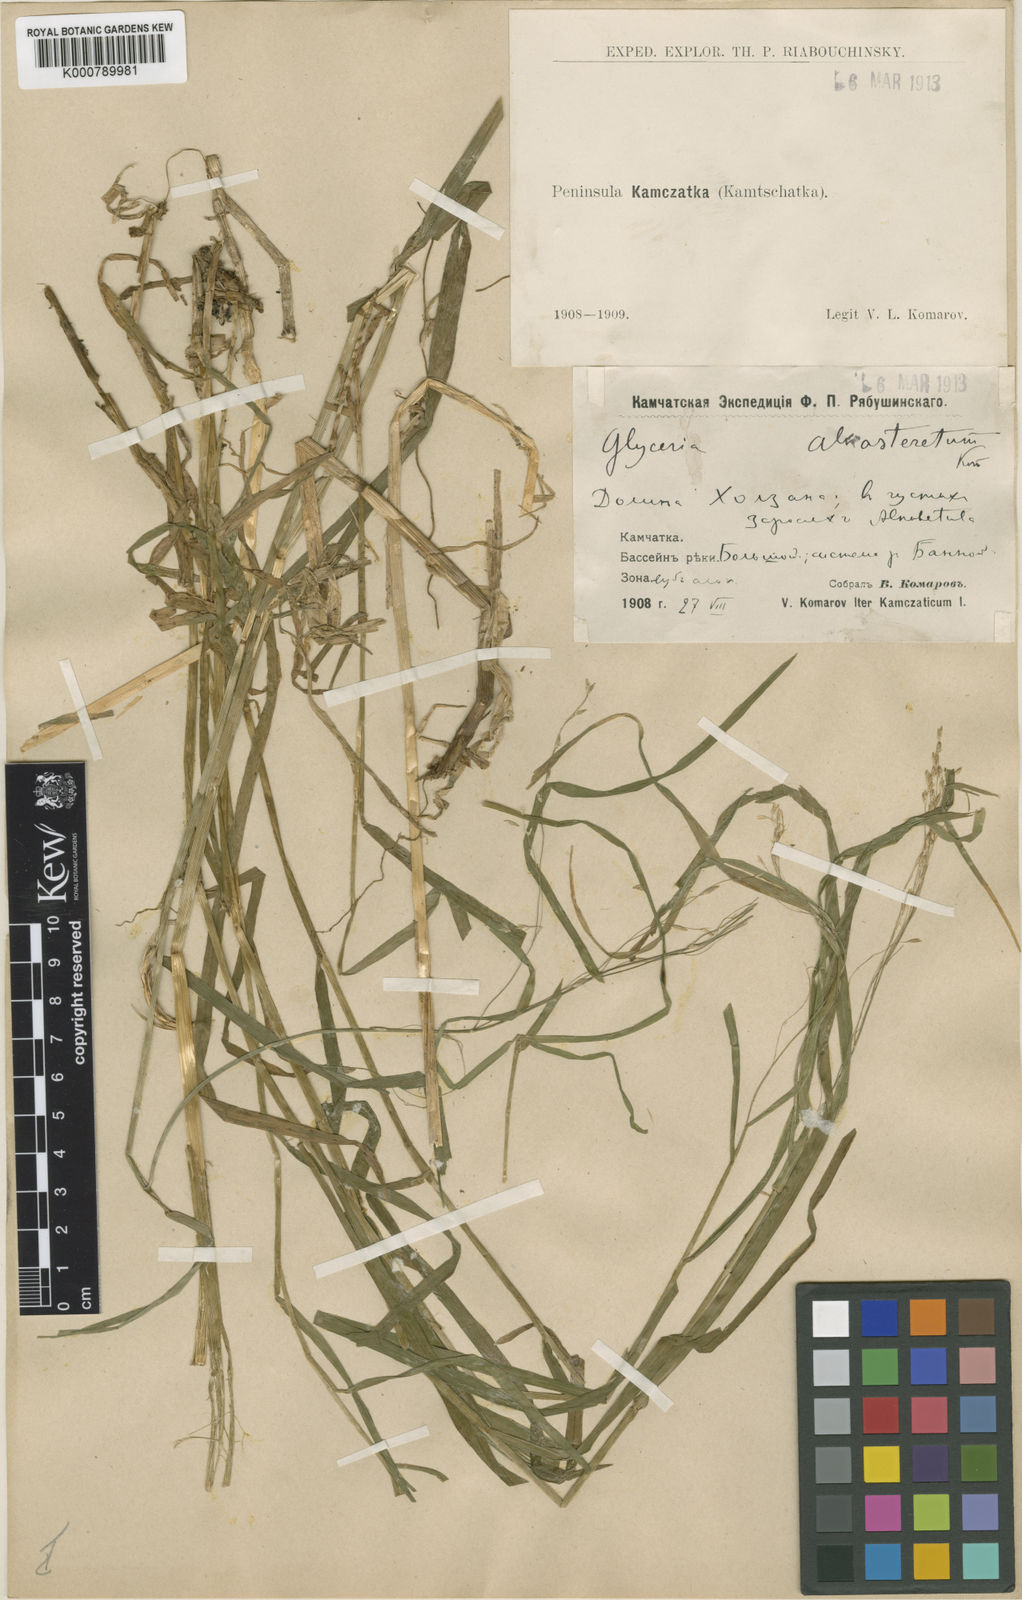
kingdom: Plantae
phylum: Tracheophyta
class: Liliopsida
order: Poales
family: Poaceae
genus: Glyceria
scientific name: Glyceria alnasteretum
